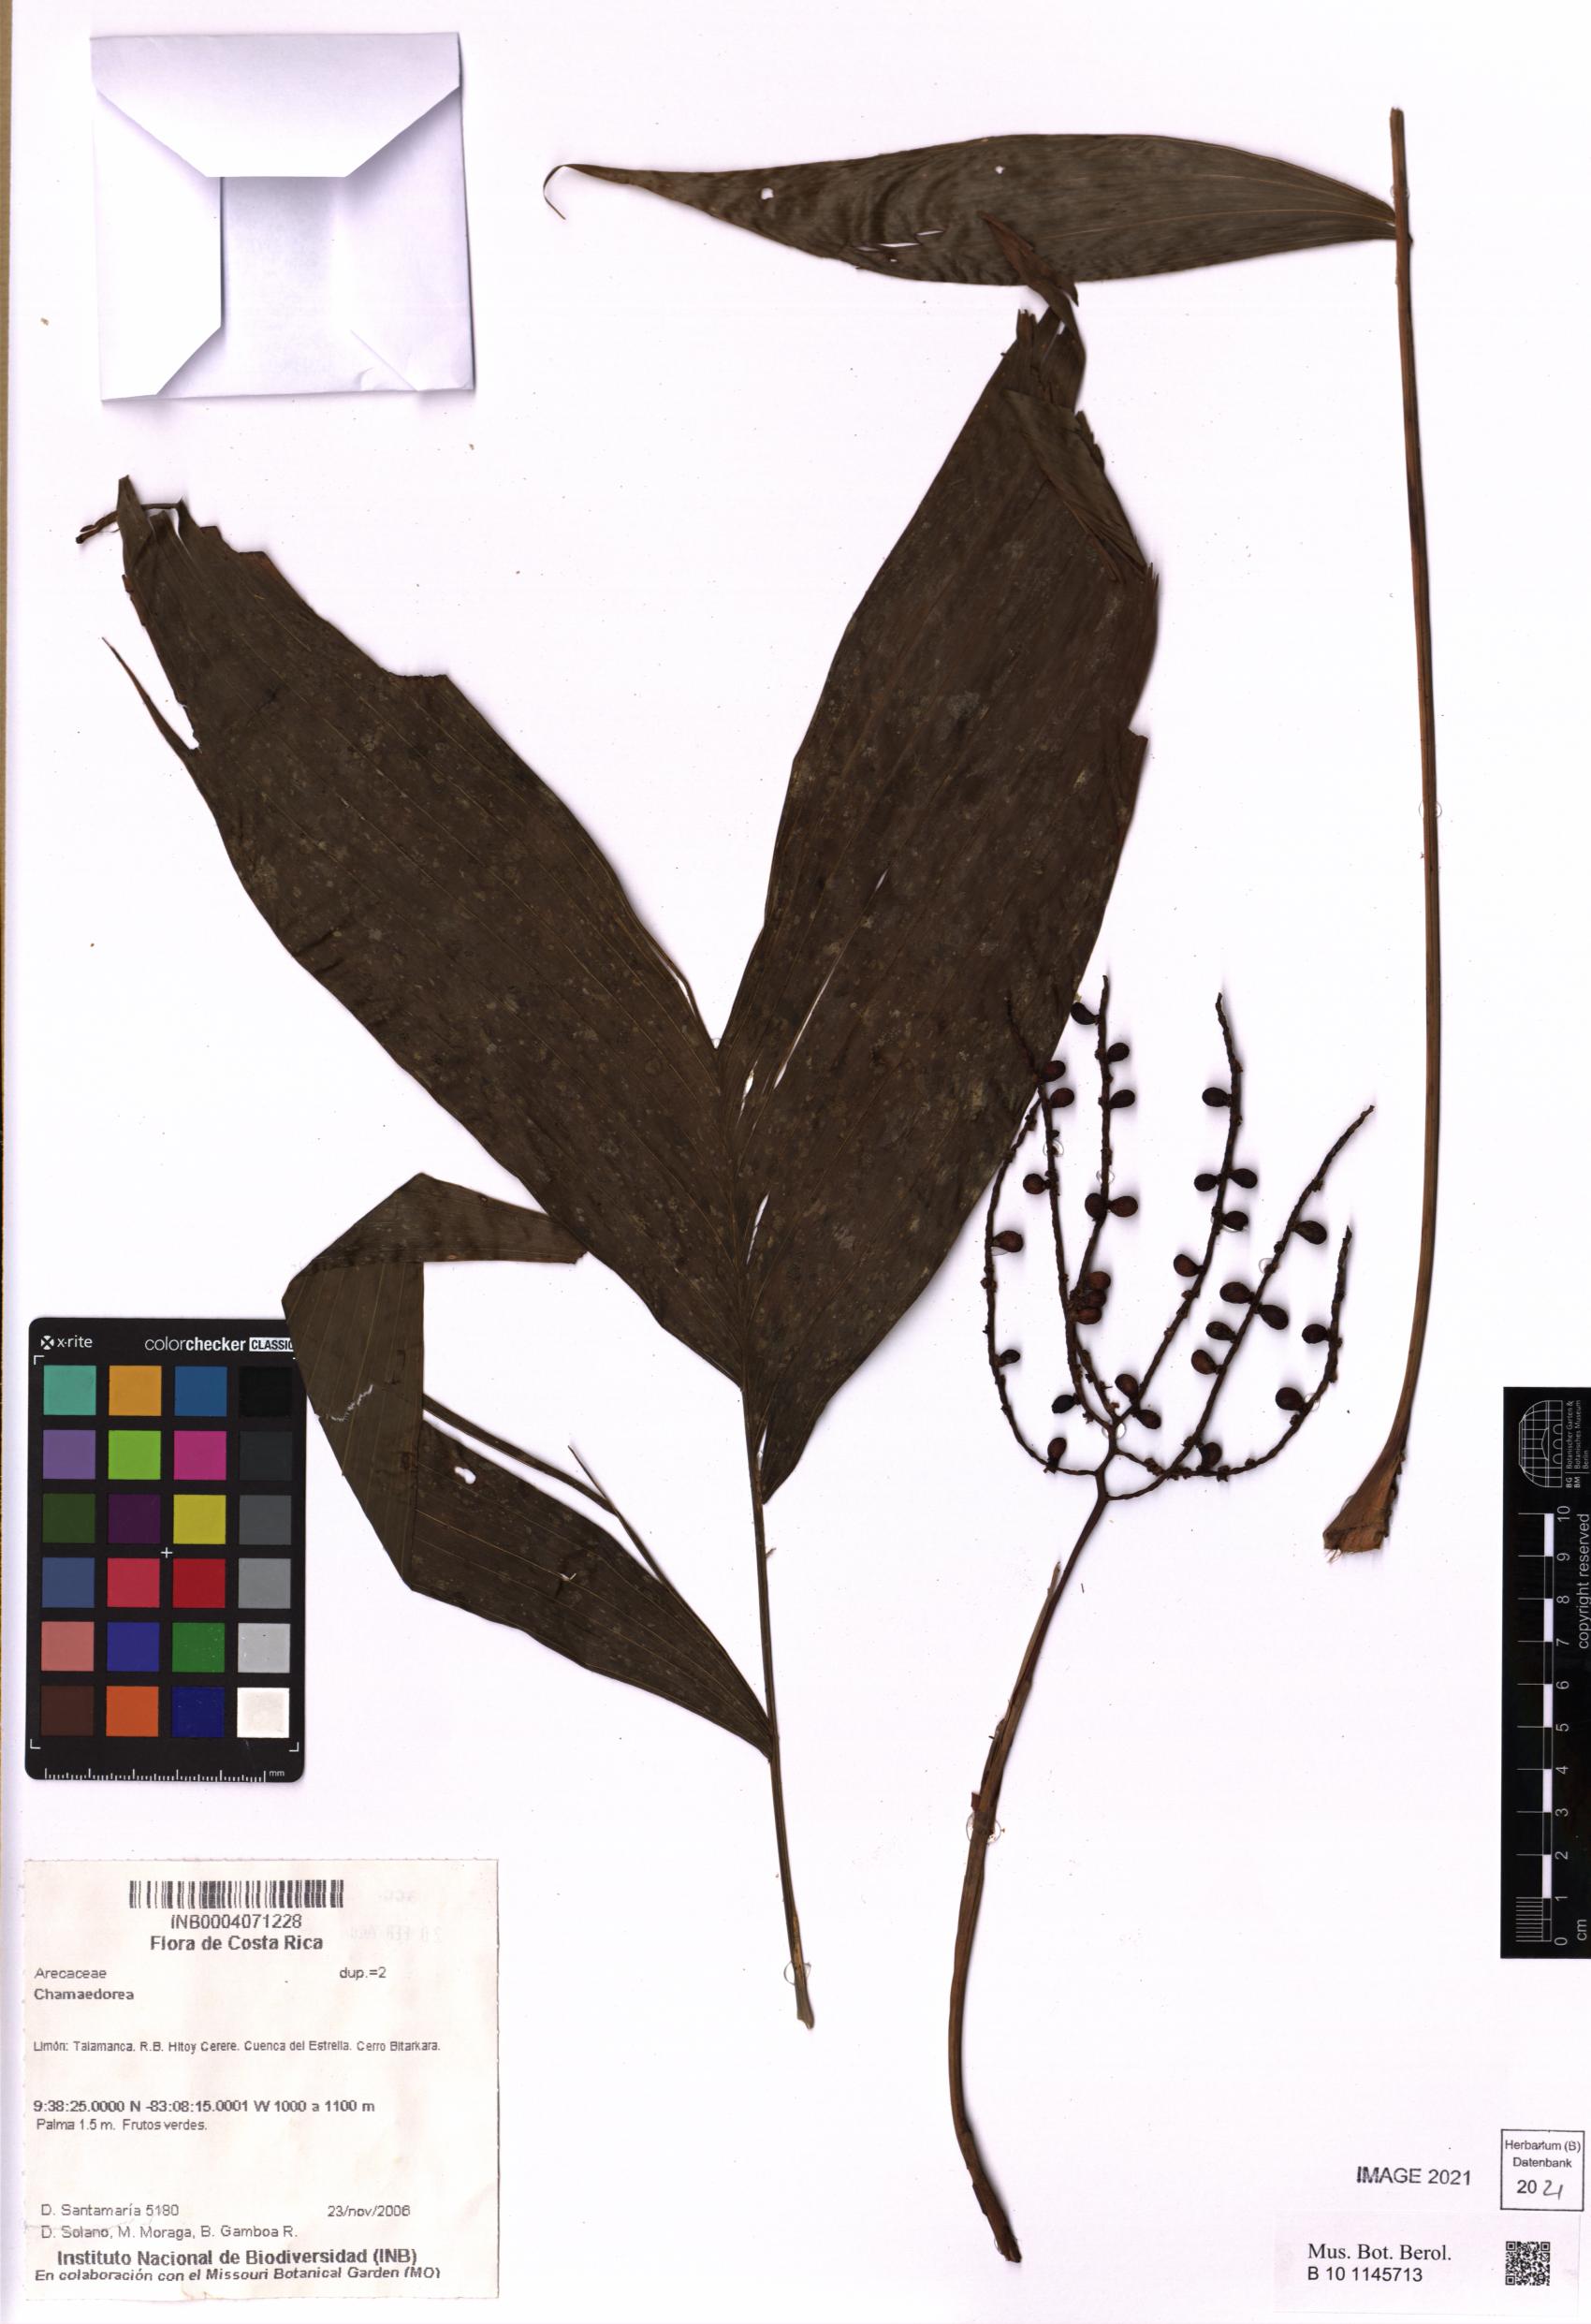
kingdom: Plantae
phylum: Tracheophyta
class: Liliopsida
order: Arecales
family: Arecaceae
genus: Chamaedorea
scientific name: Chamaedorea
